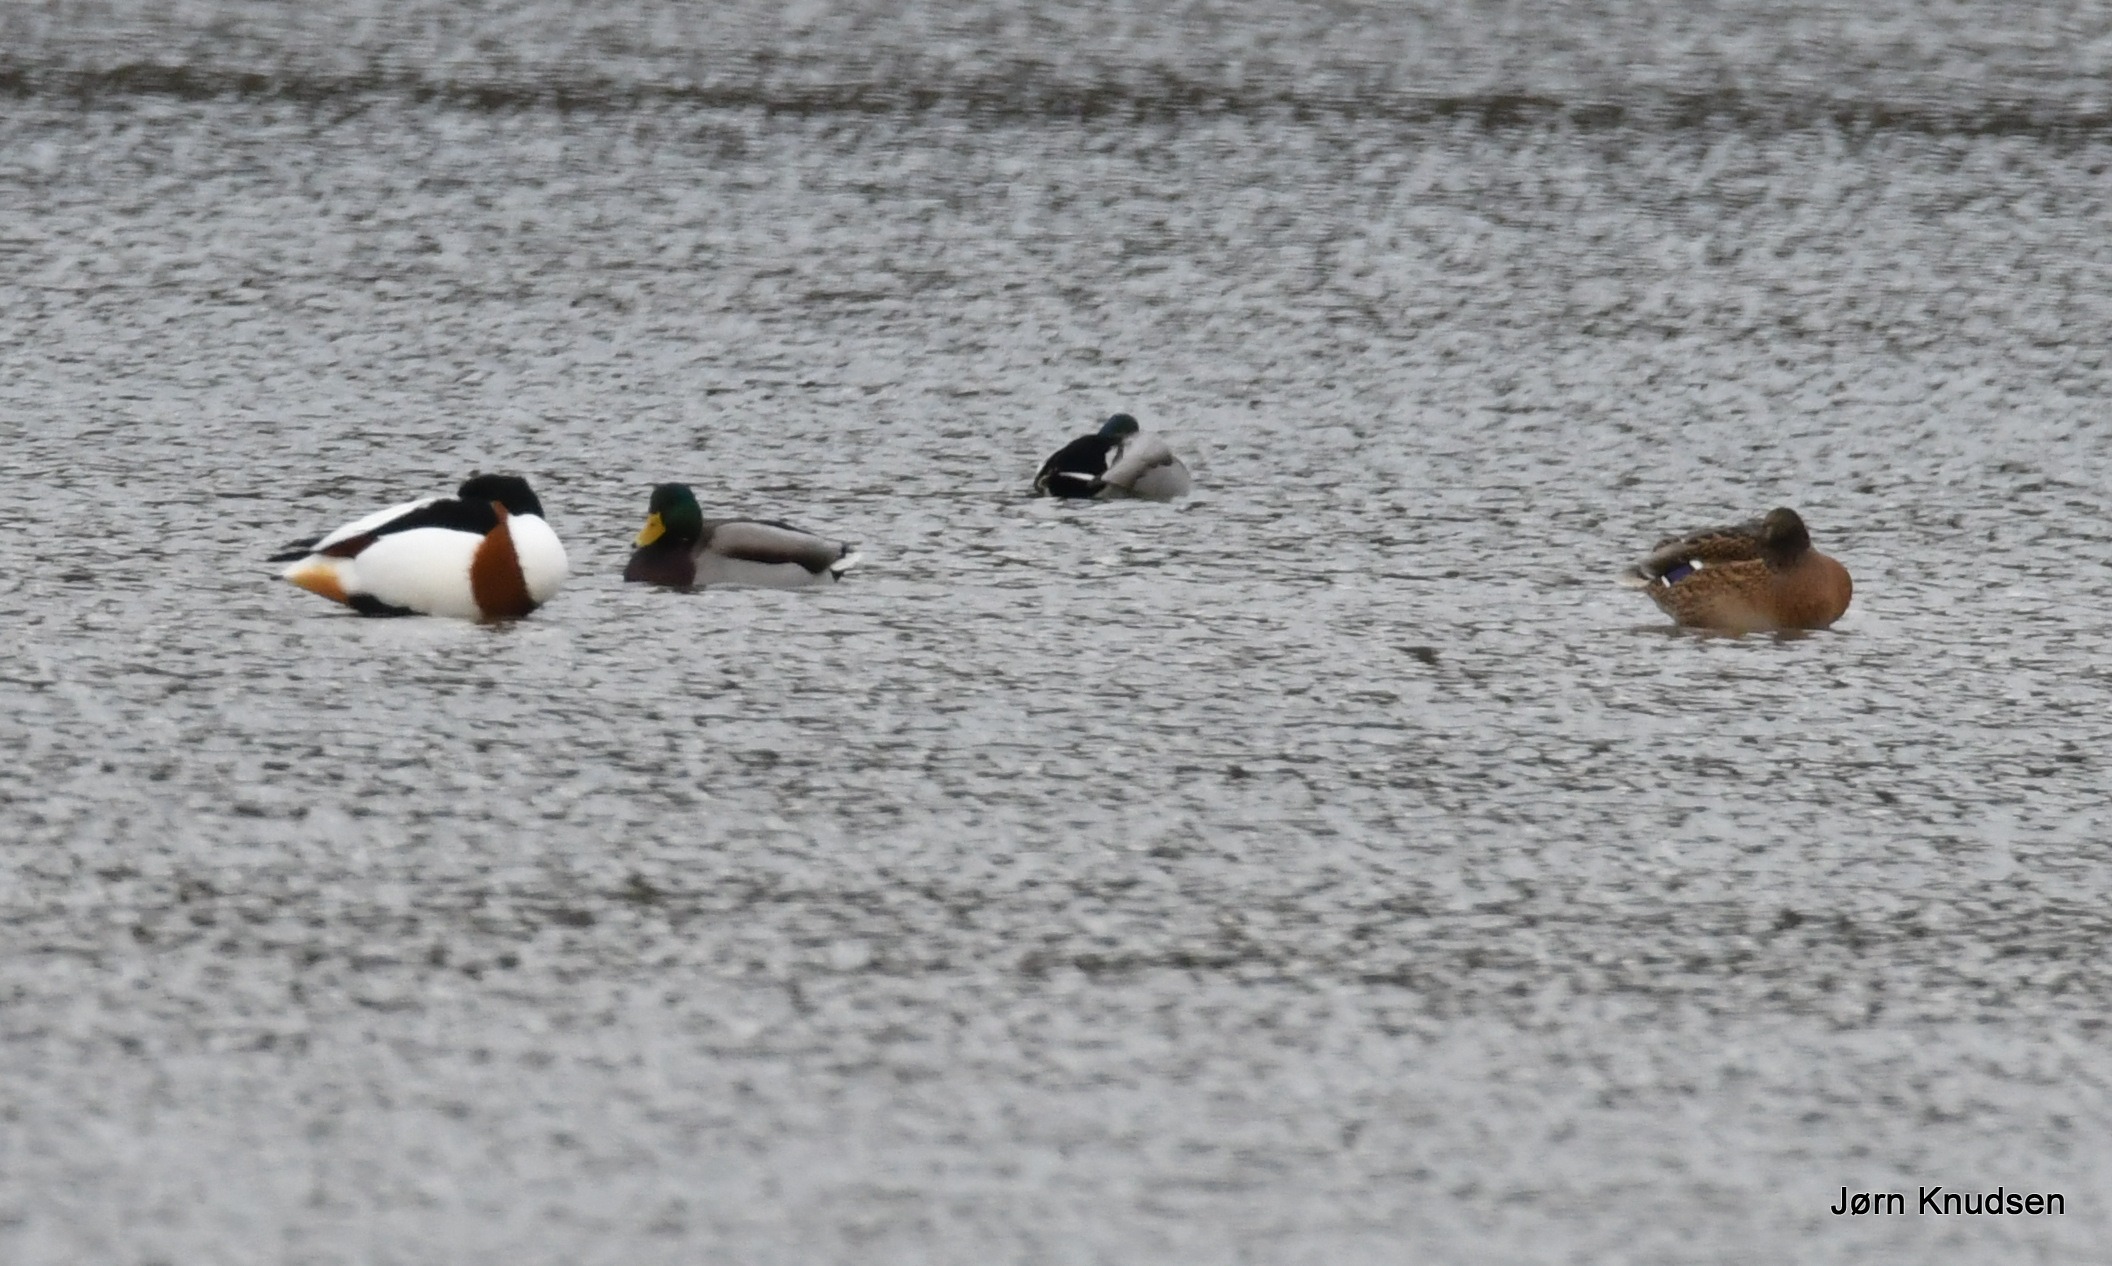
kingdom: Animalia
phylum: Chordata
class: Aves
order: Anseriformes
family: Anatidae
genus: Tadorna
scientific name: Tadorna tadorna
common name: Gravand
